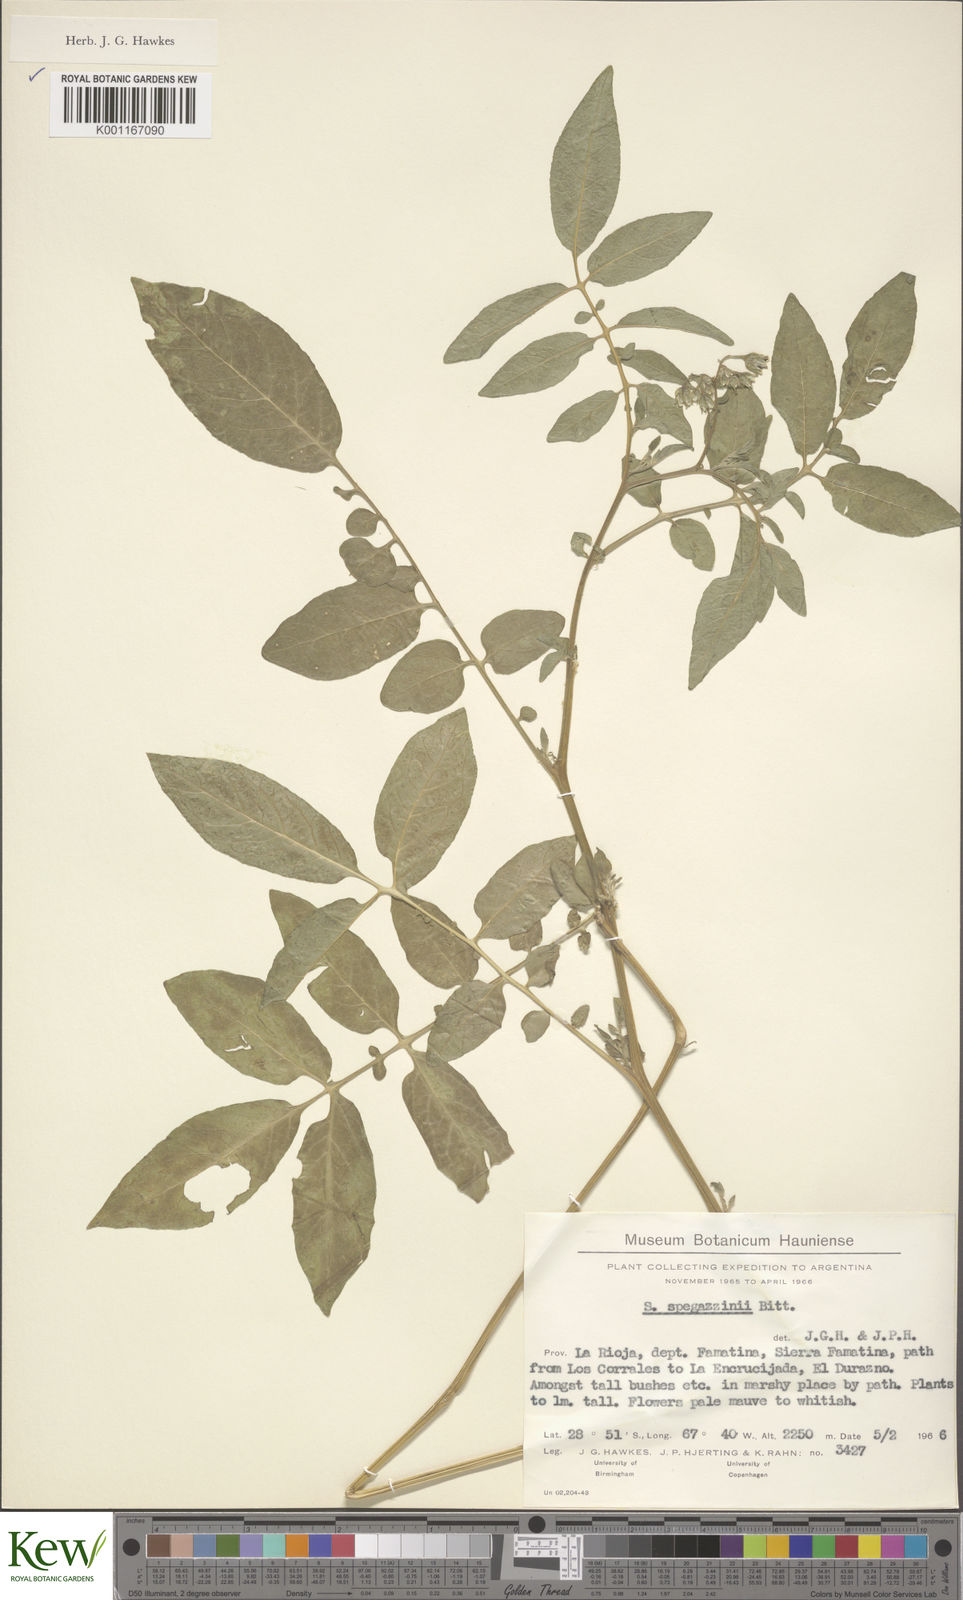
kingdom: Plantae
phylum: Tracheophyta
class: Magnoliopsida
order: Solanales
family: Solanaceae
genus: Solanum
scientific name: Solanum brevicaule
